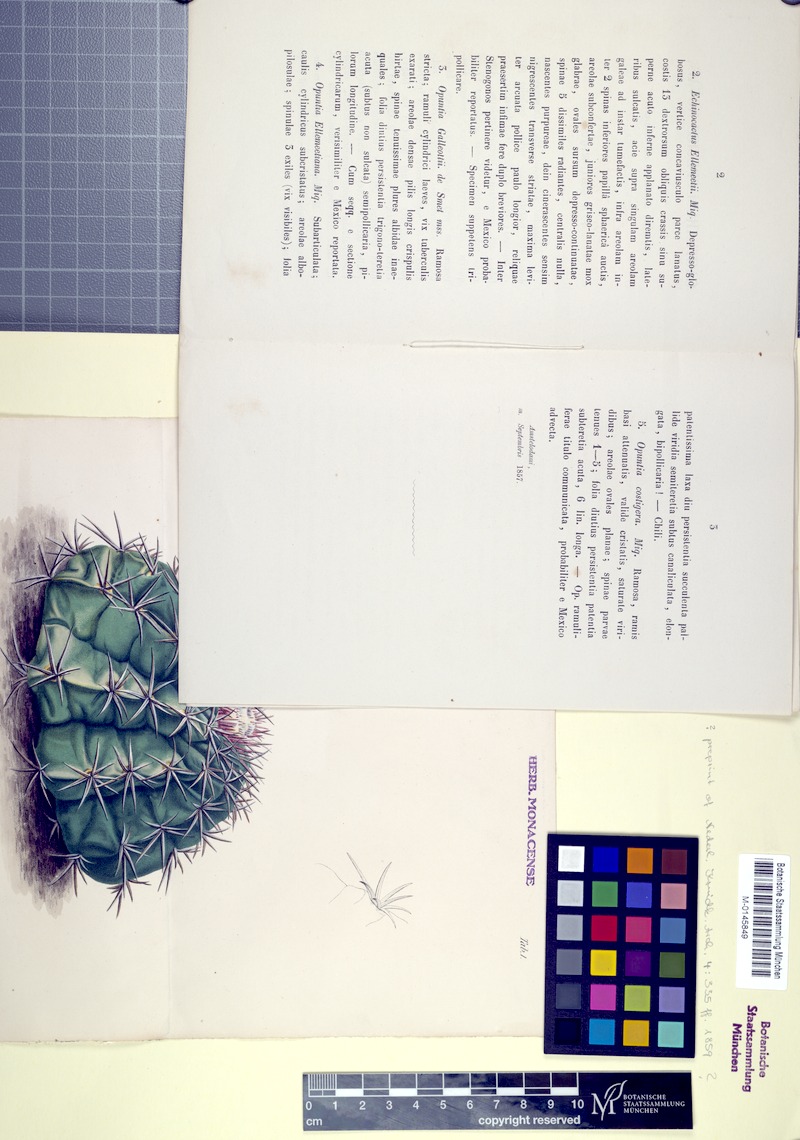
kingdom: Plantae
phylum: Tracheophyta
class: Magnoliopsida
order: Caryophyllales
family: Cactaceae
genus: Melocactus
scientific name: Melocactus violaceus
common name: Turk's-cap cactus
